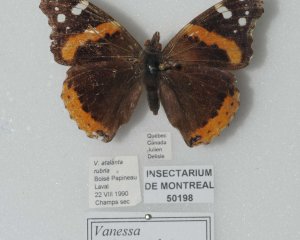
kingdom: Animalia
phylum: Arthropoda
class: Insecta
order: Lepidoptera
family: Nymphalidae
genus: Vanessa
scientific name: Vanessa atalanta
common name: Red Admiral
